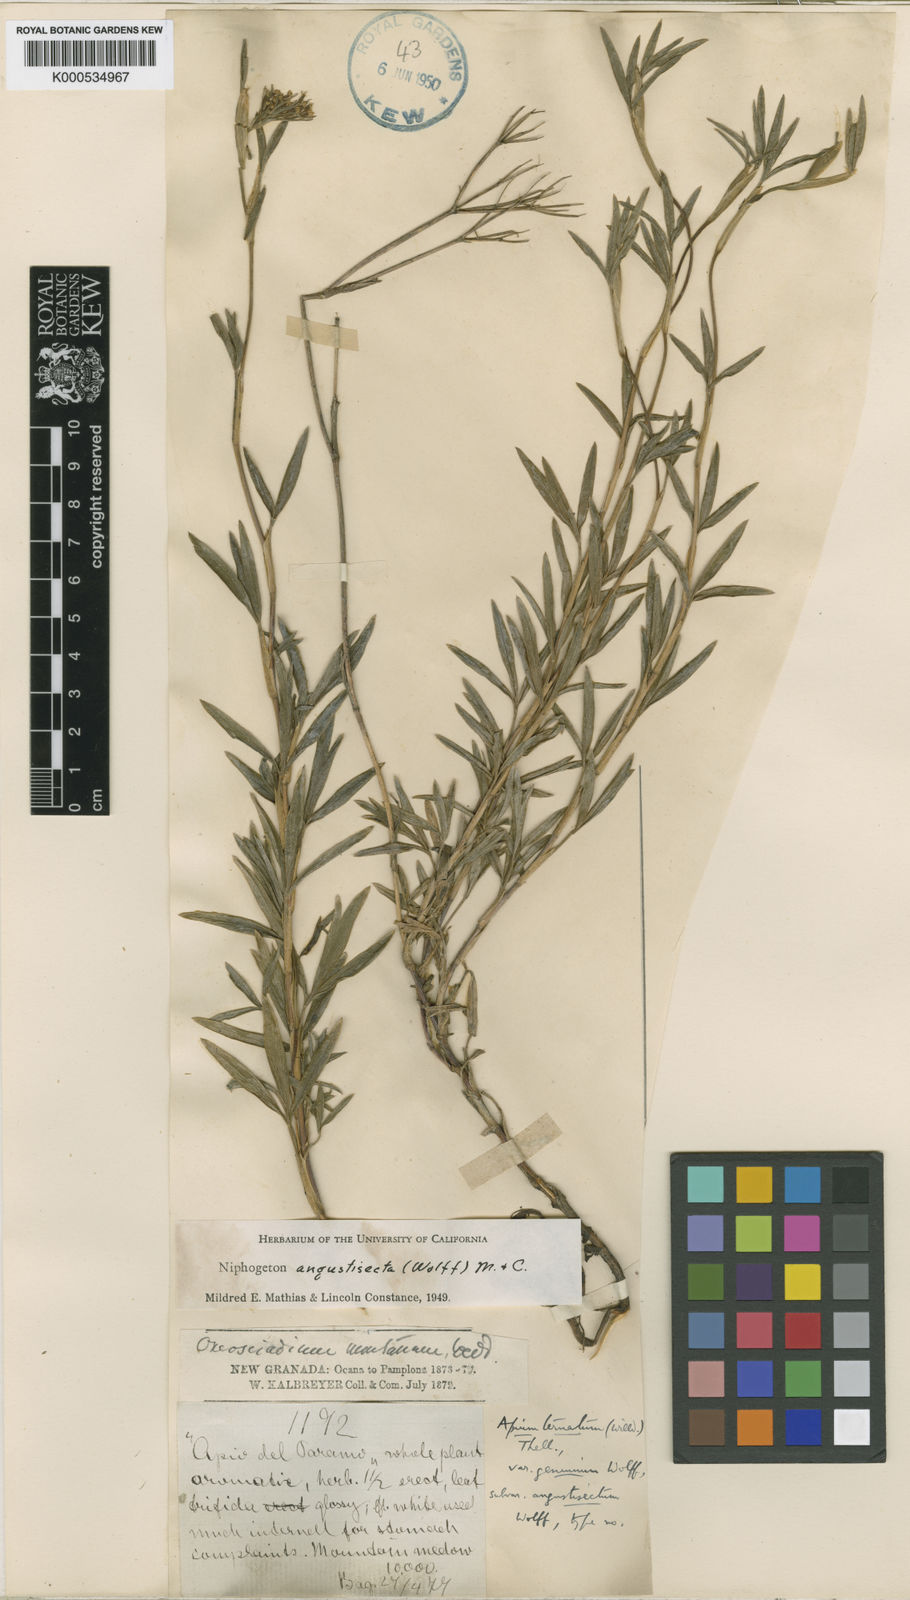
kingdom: Plantae
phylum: Tracheophyta
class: Magnoliopsida
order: Apiales
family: Apiaceae
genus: Niphogeton
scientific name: Niphogeton chirripoi
